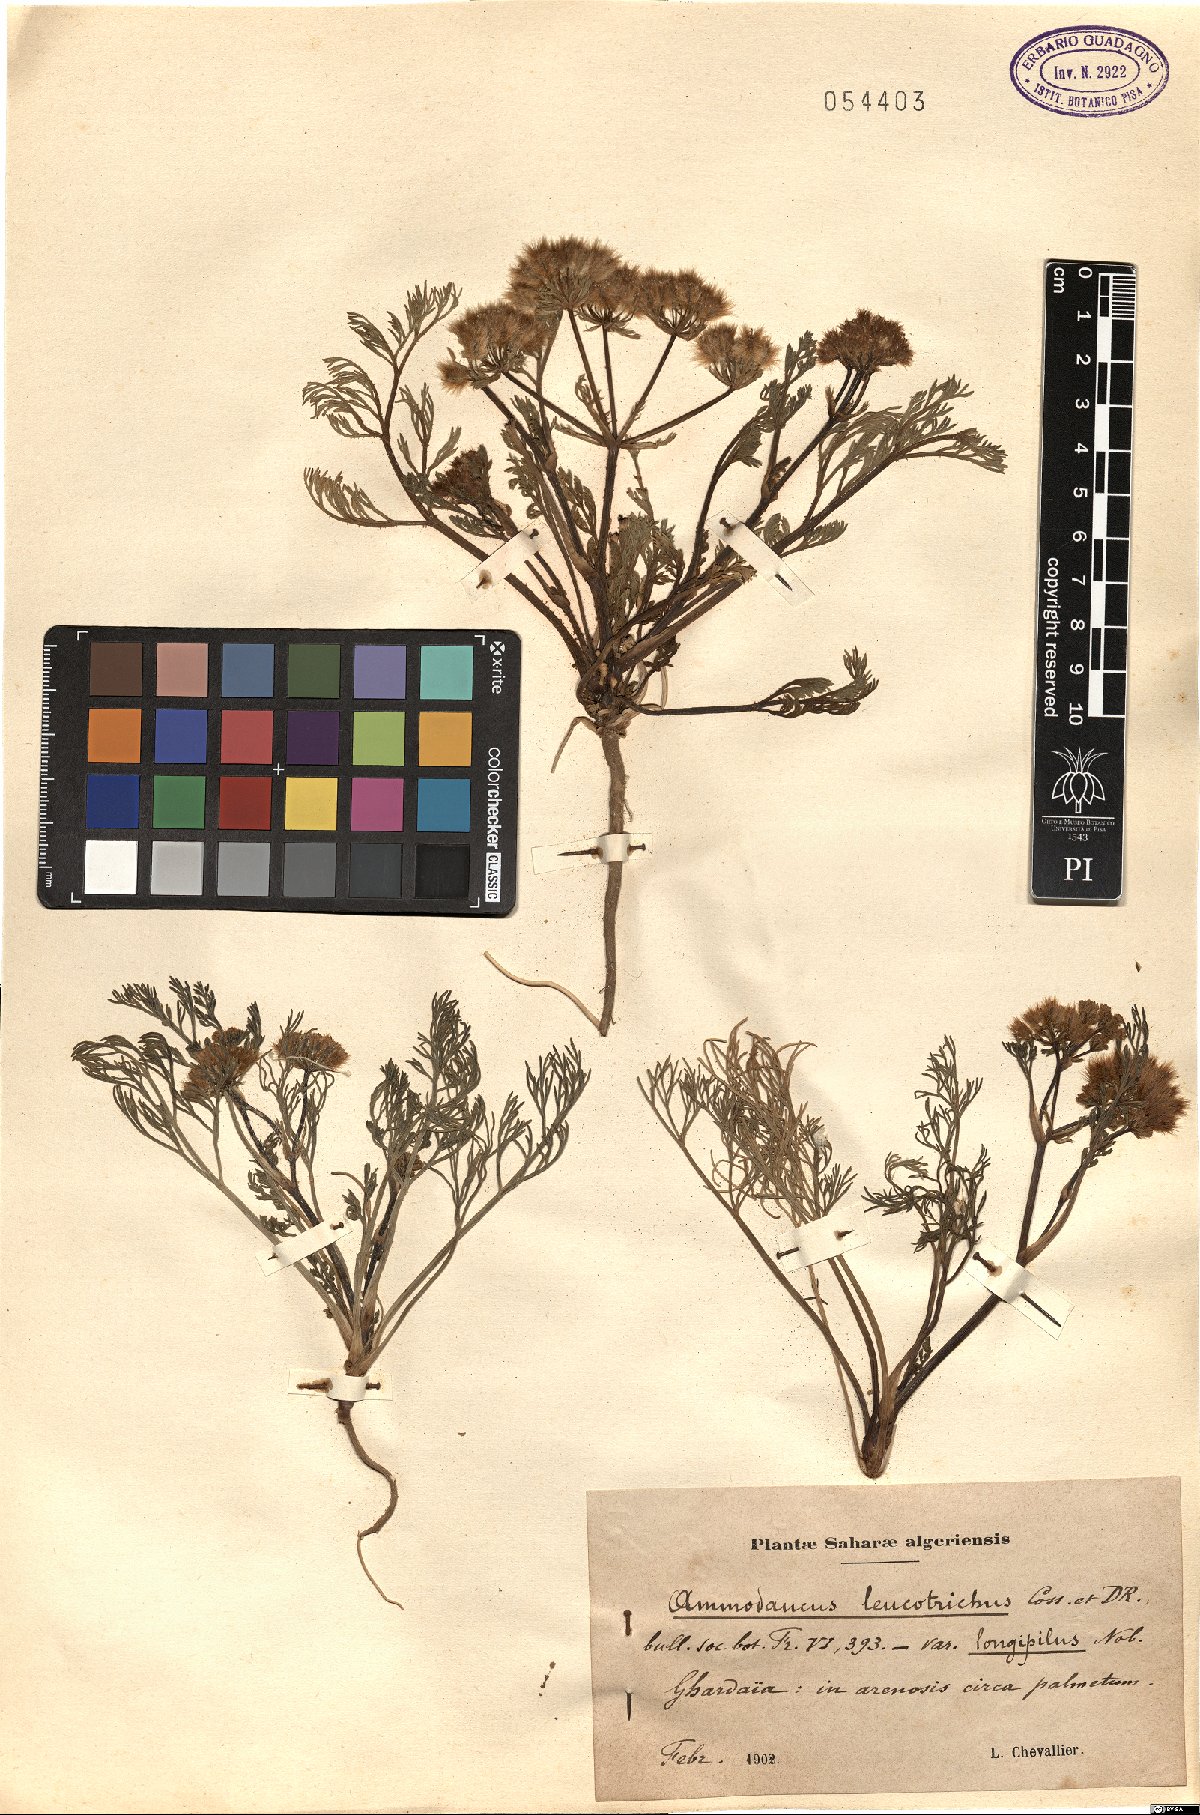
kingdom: Plantae
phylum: Tracheophyta
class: Magnoliopsida
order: Apiales
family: Apiaceae
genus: Ammodaucus
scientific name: Ammodaucus leucotrichus
